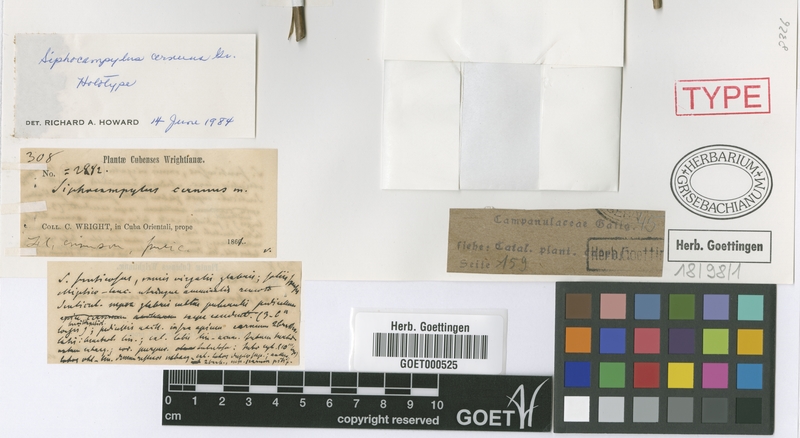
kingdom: Plantae
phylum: Tracheophyta
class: Magnoliopsida
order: Asterales
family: Campanulaceae
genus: Siphocampylus
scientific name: Siphocampylus cernuus
